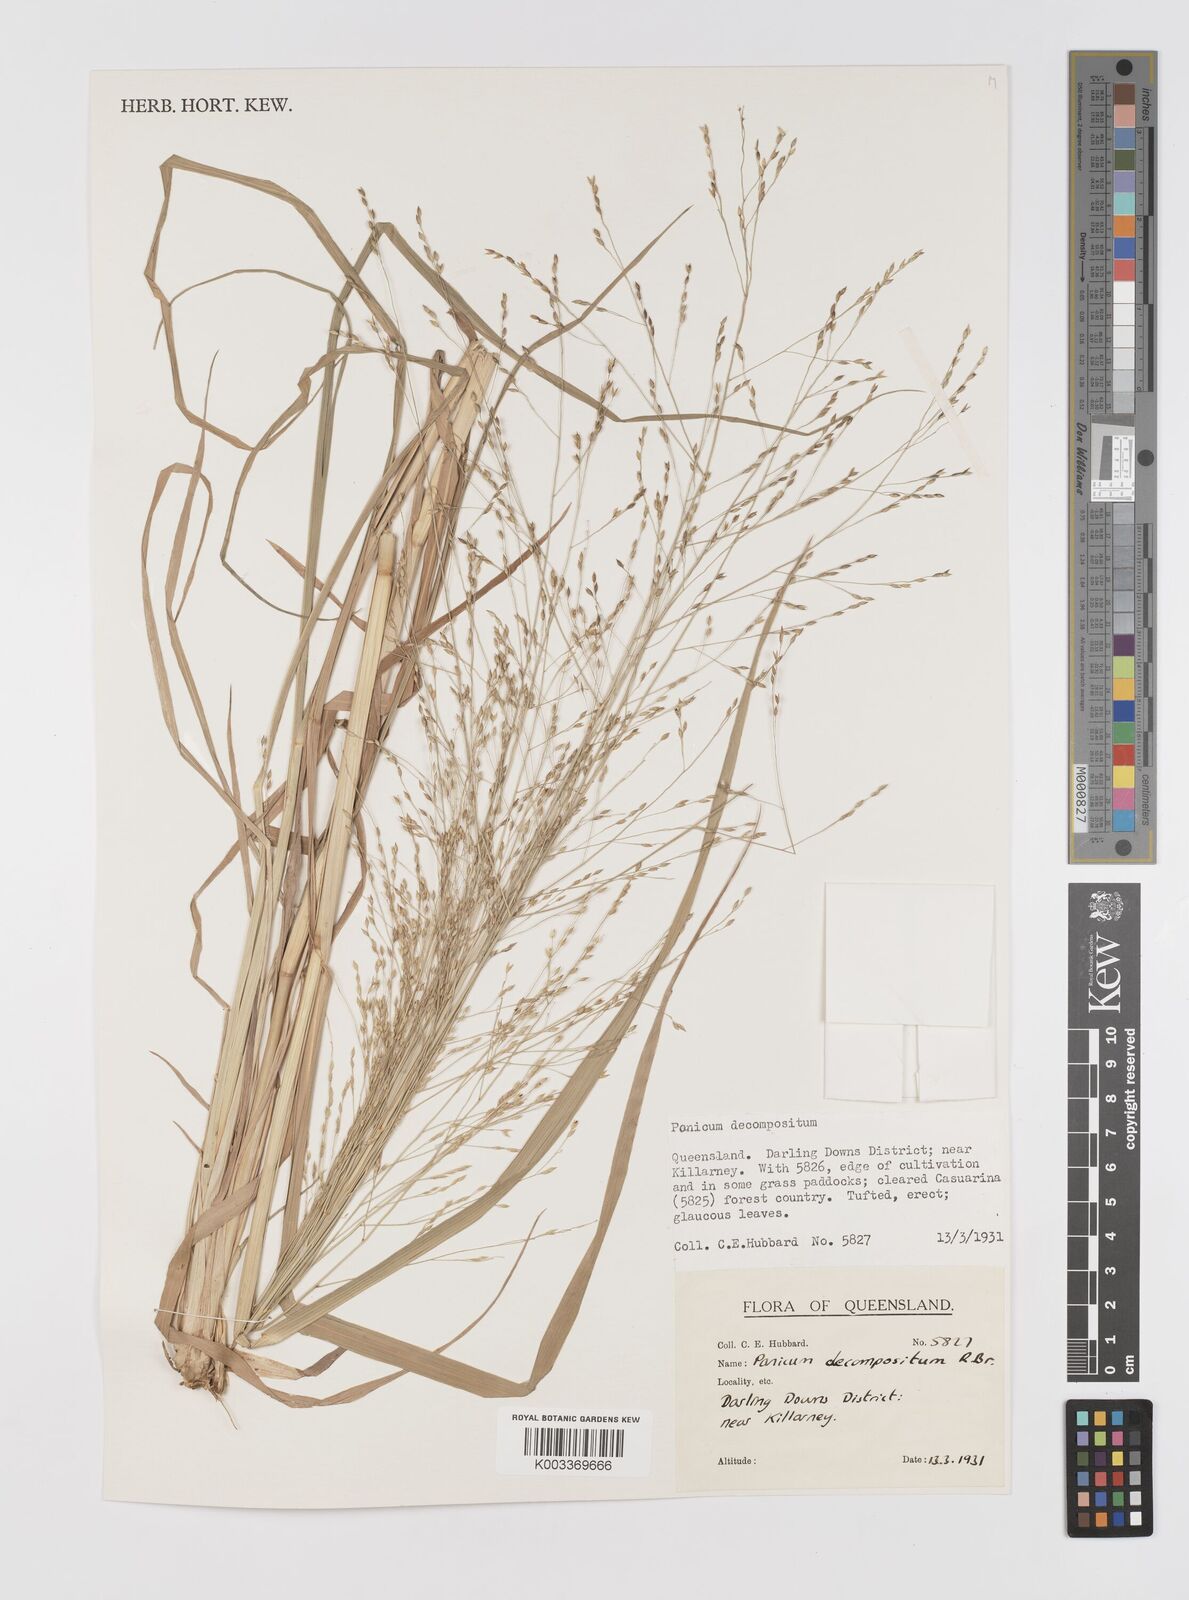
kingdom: Plantae
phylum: Tracheophyta
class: Liliopsida
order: Poales
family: Poaceae
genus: Panicum
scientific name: Panicum decompositum
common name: Australian millet
